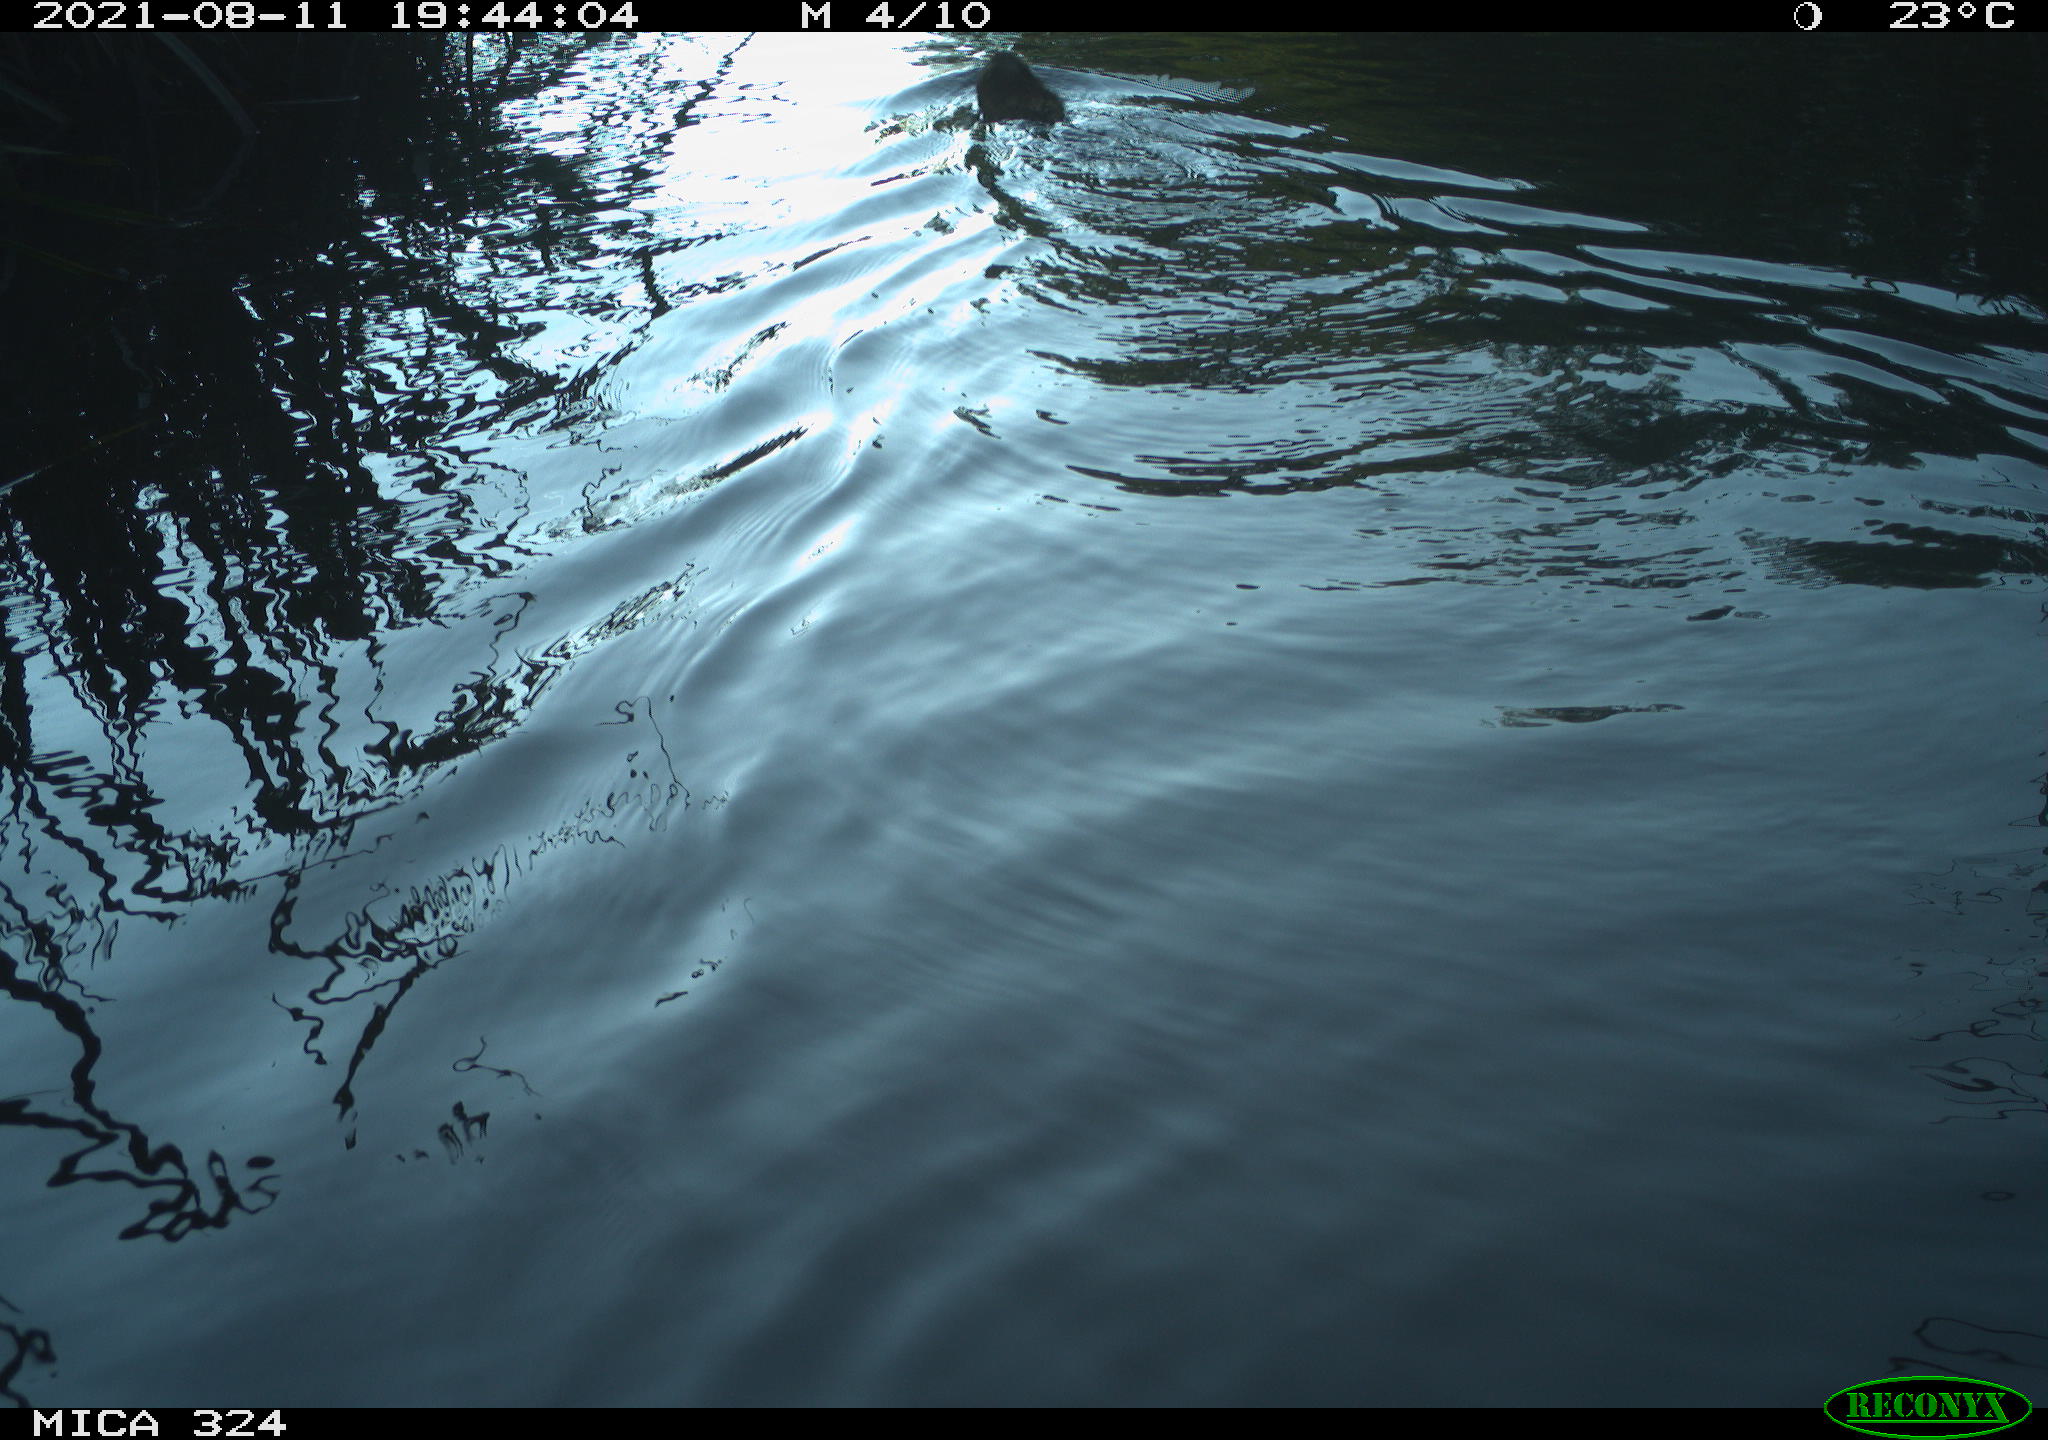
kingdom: Animalia
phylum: Chordata
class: Mammalia
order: Rodentia
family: Cricetidae
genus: Ondatra
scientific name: Ondatra zibethicus
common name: Muskrat
